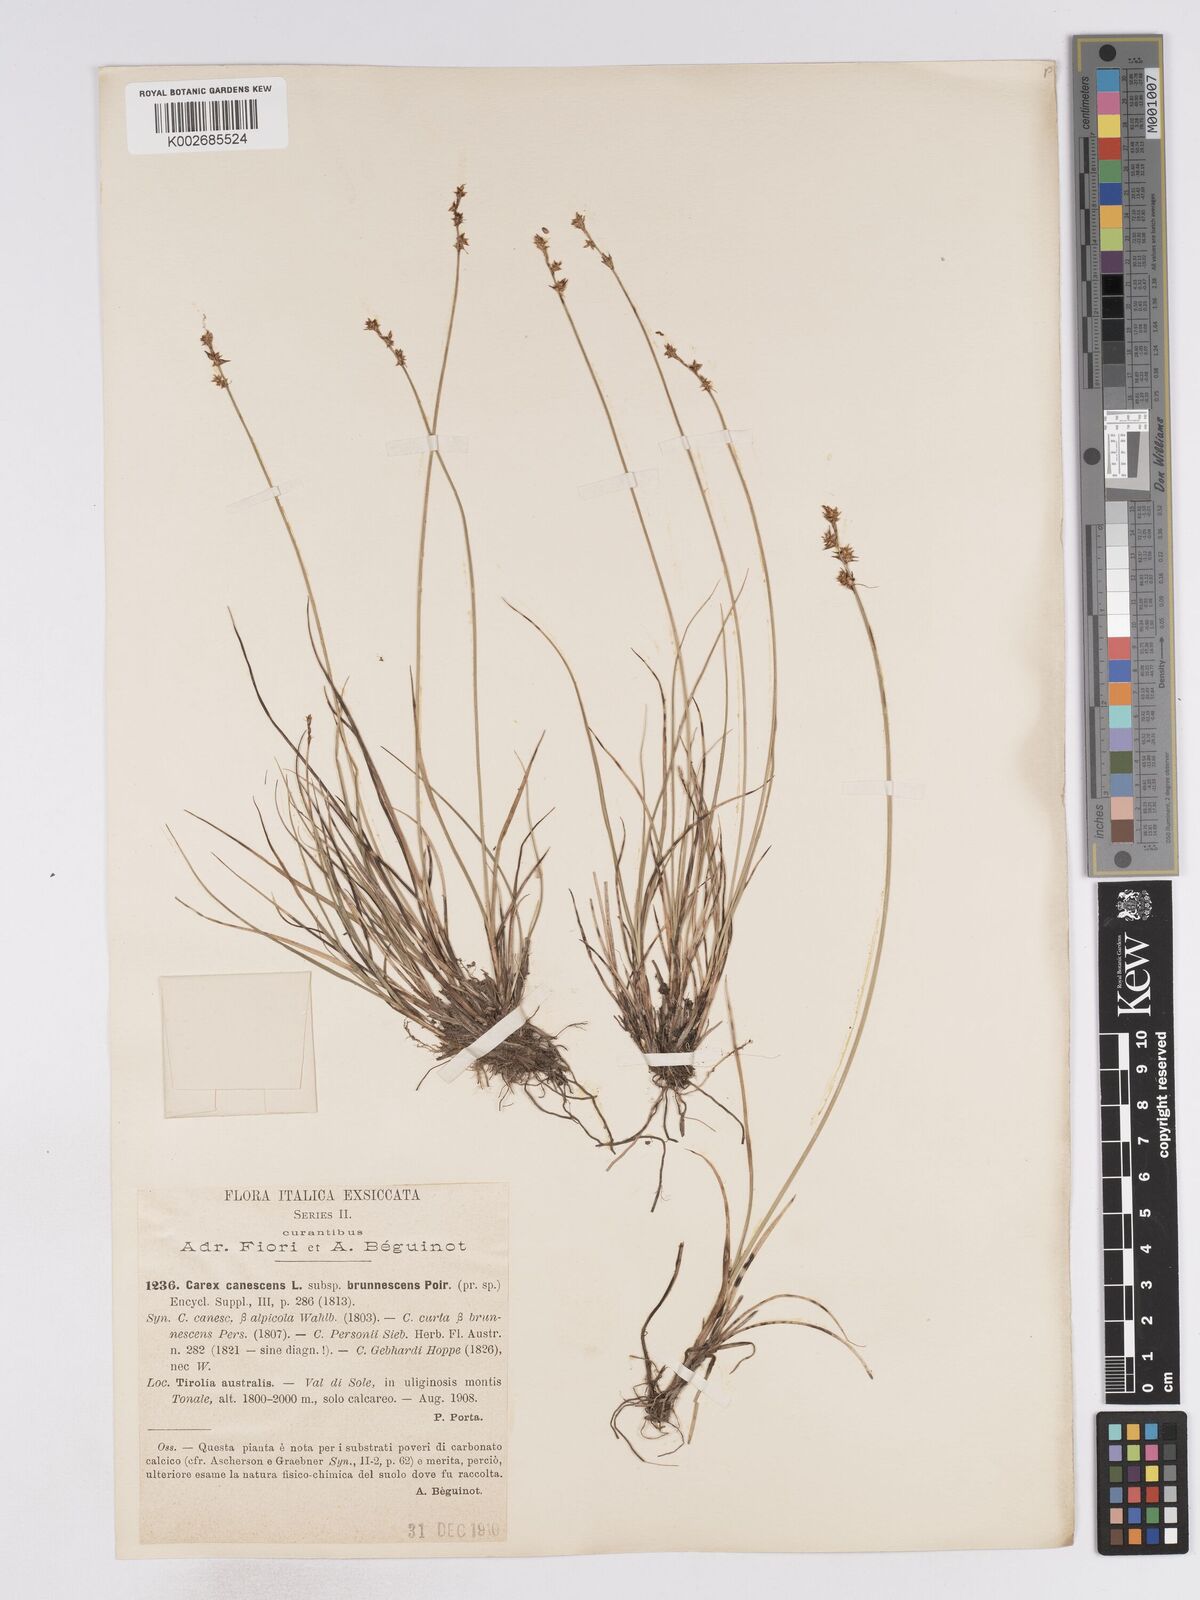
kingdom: Plantae
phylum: Tracheophyta
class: Liliopsida
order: Poales
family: Cyperaceae
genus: Carex
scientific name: Carex echinata
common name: Star sedge
